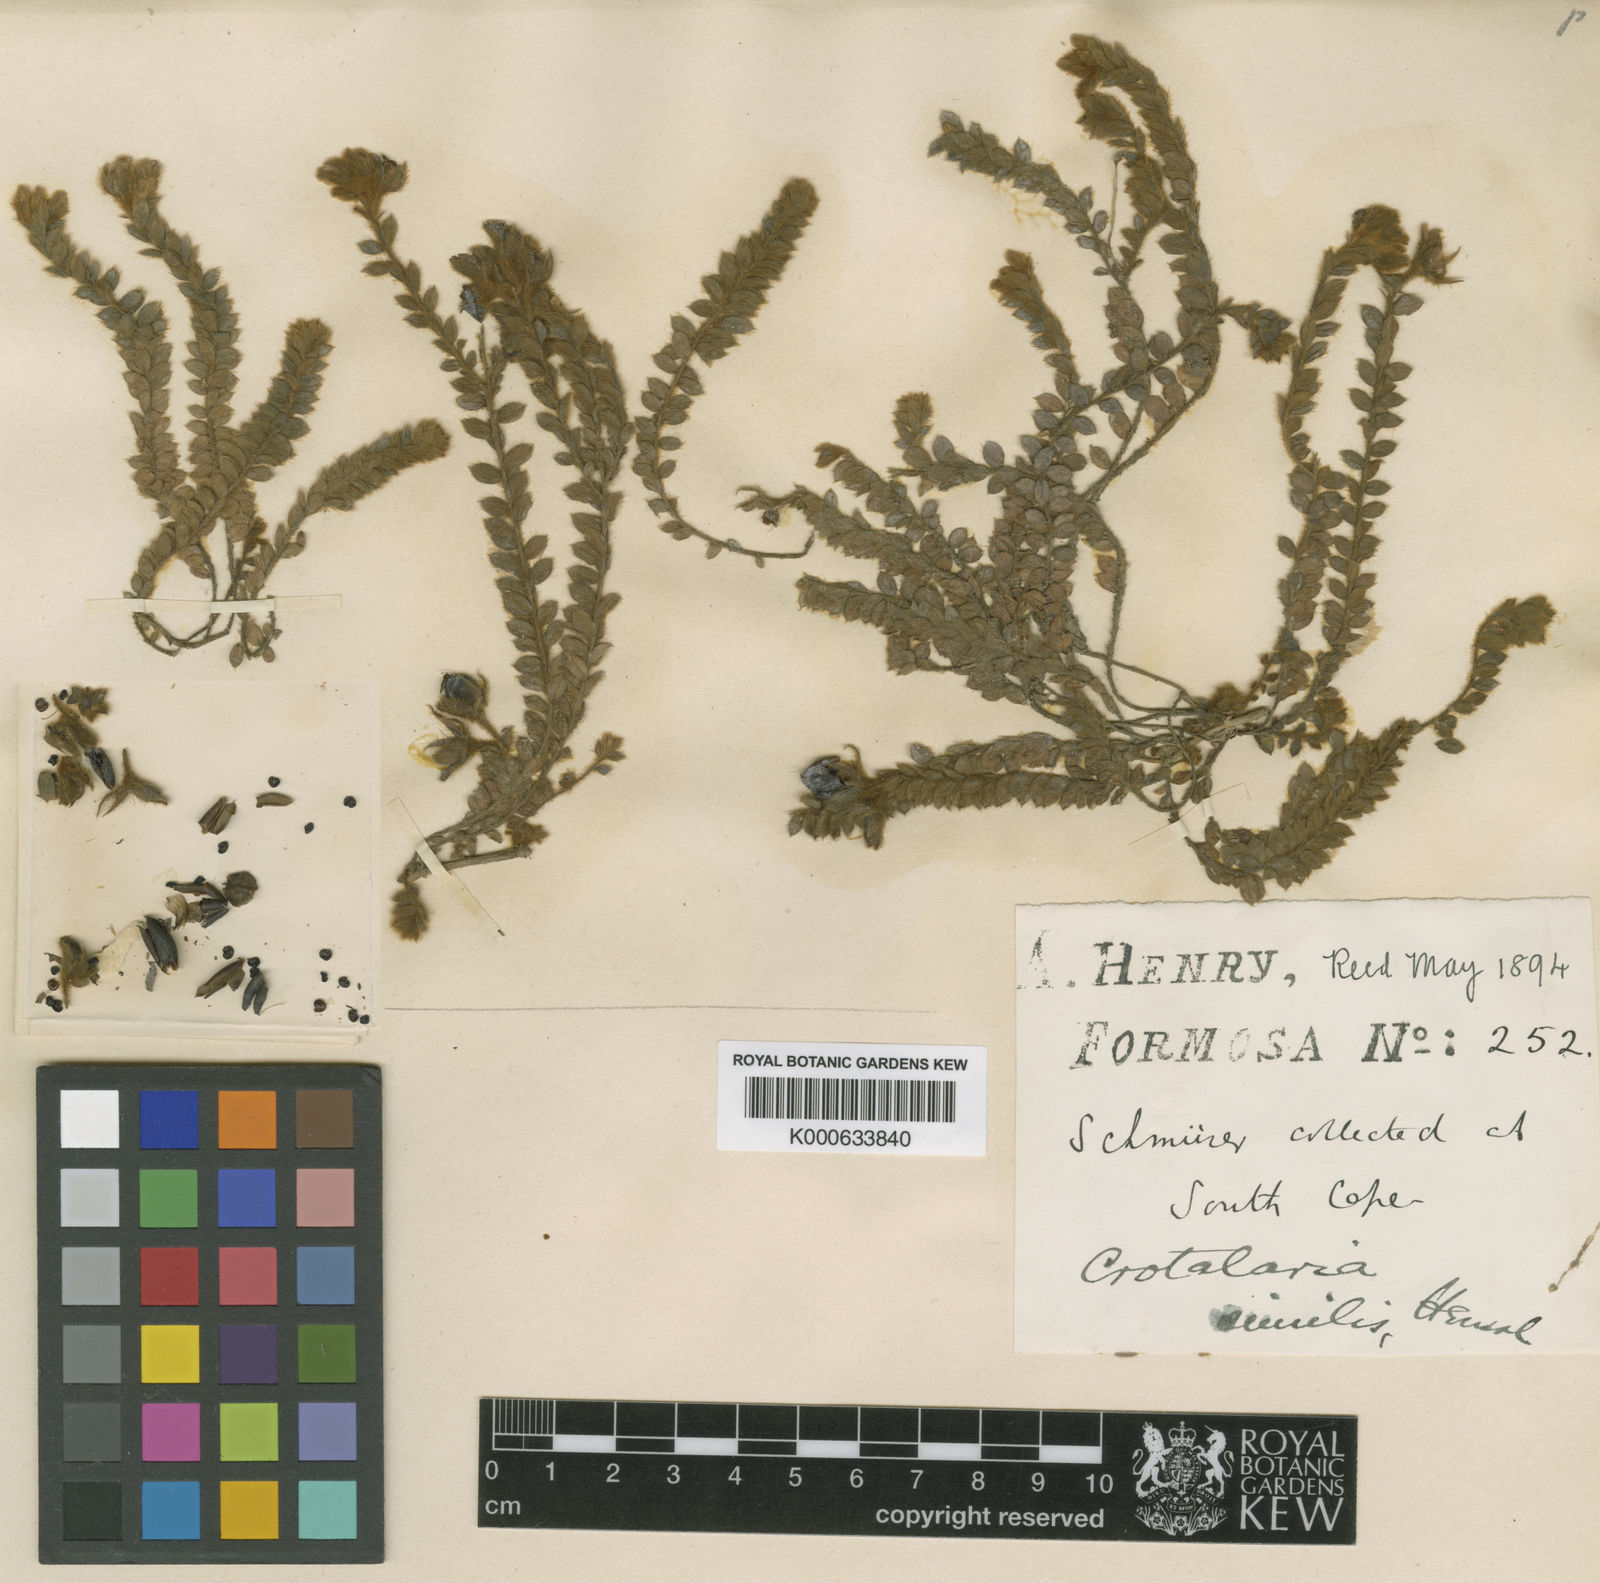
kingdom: Plantae
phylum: Tracheophyta
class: Magnoliopsida
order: Fabales
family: Fabaceae
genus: Crotalaria
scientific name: Crotalaria similis
